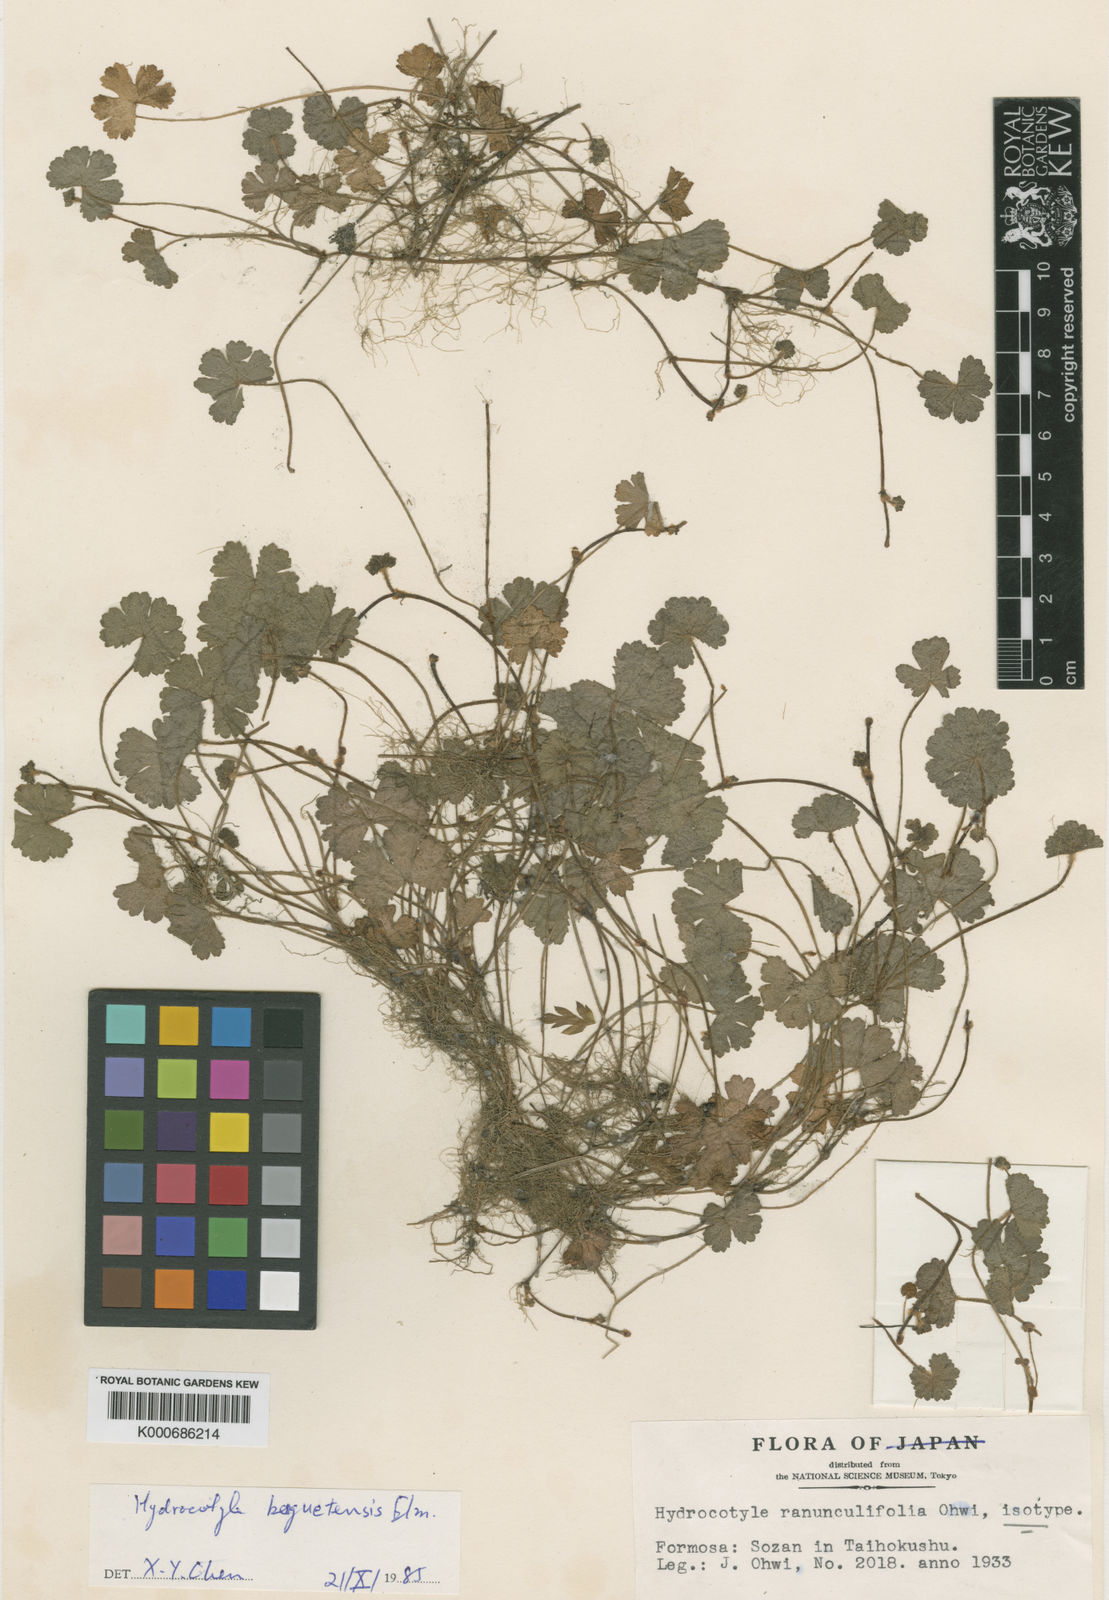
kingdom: Plantae
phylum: Tracheophyta
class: Magnoliopsida
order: Apiales
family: Araliaceae
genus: Hydrocotyle
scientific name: Hydrocotyle benguetensis
